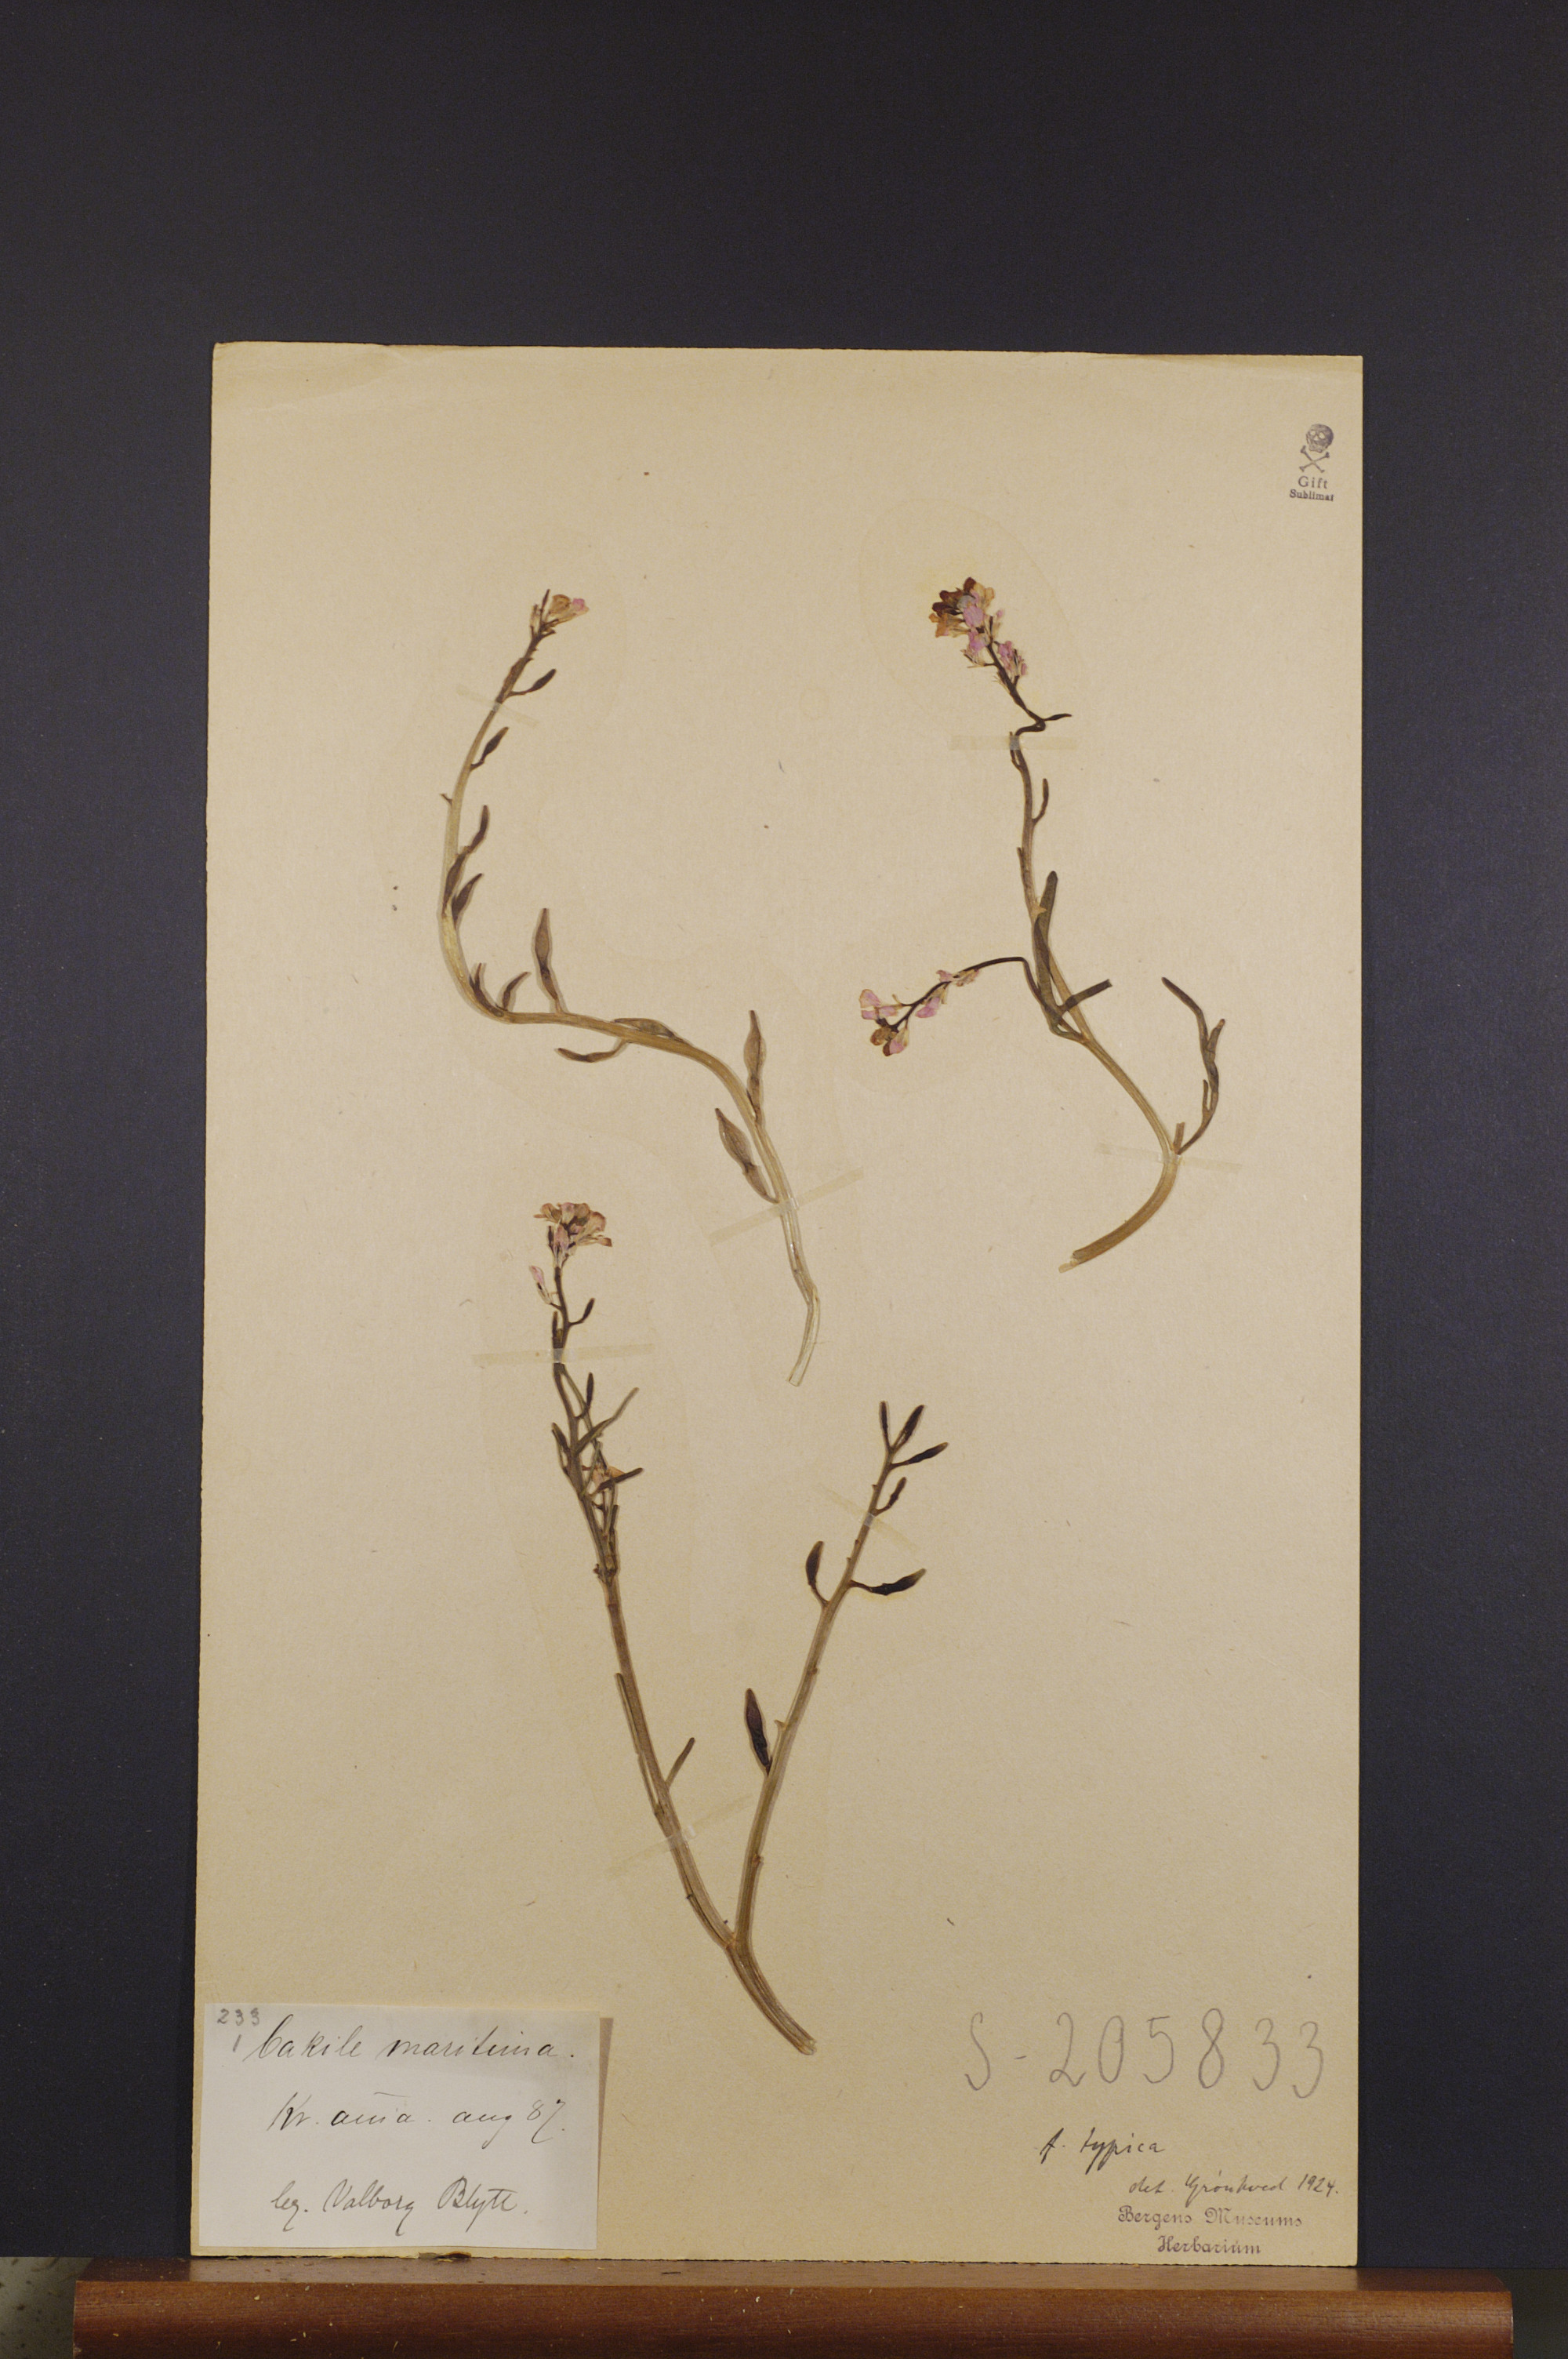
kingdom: Plantae
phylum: Tracheophyta
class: Magnoliopsida
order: Brassicales
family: Brassicaceae
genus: Cakile
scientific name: Cakile maritima
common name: Sea rocket
